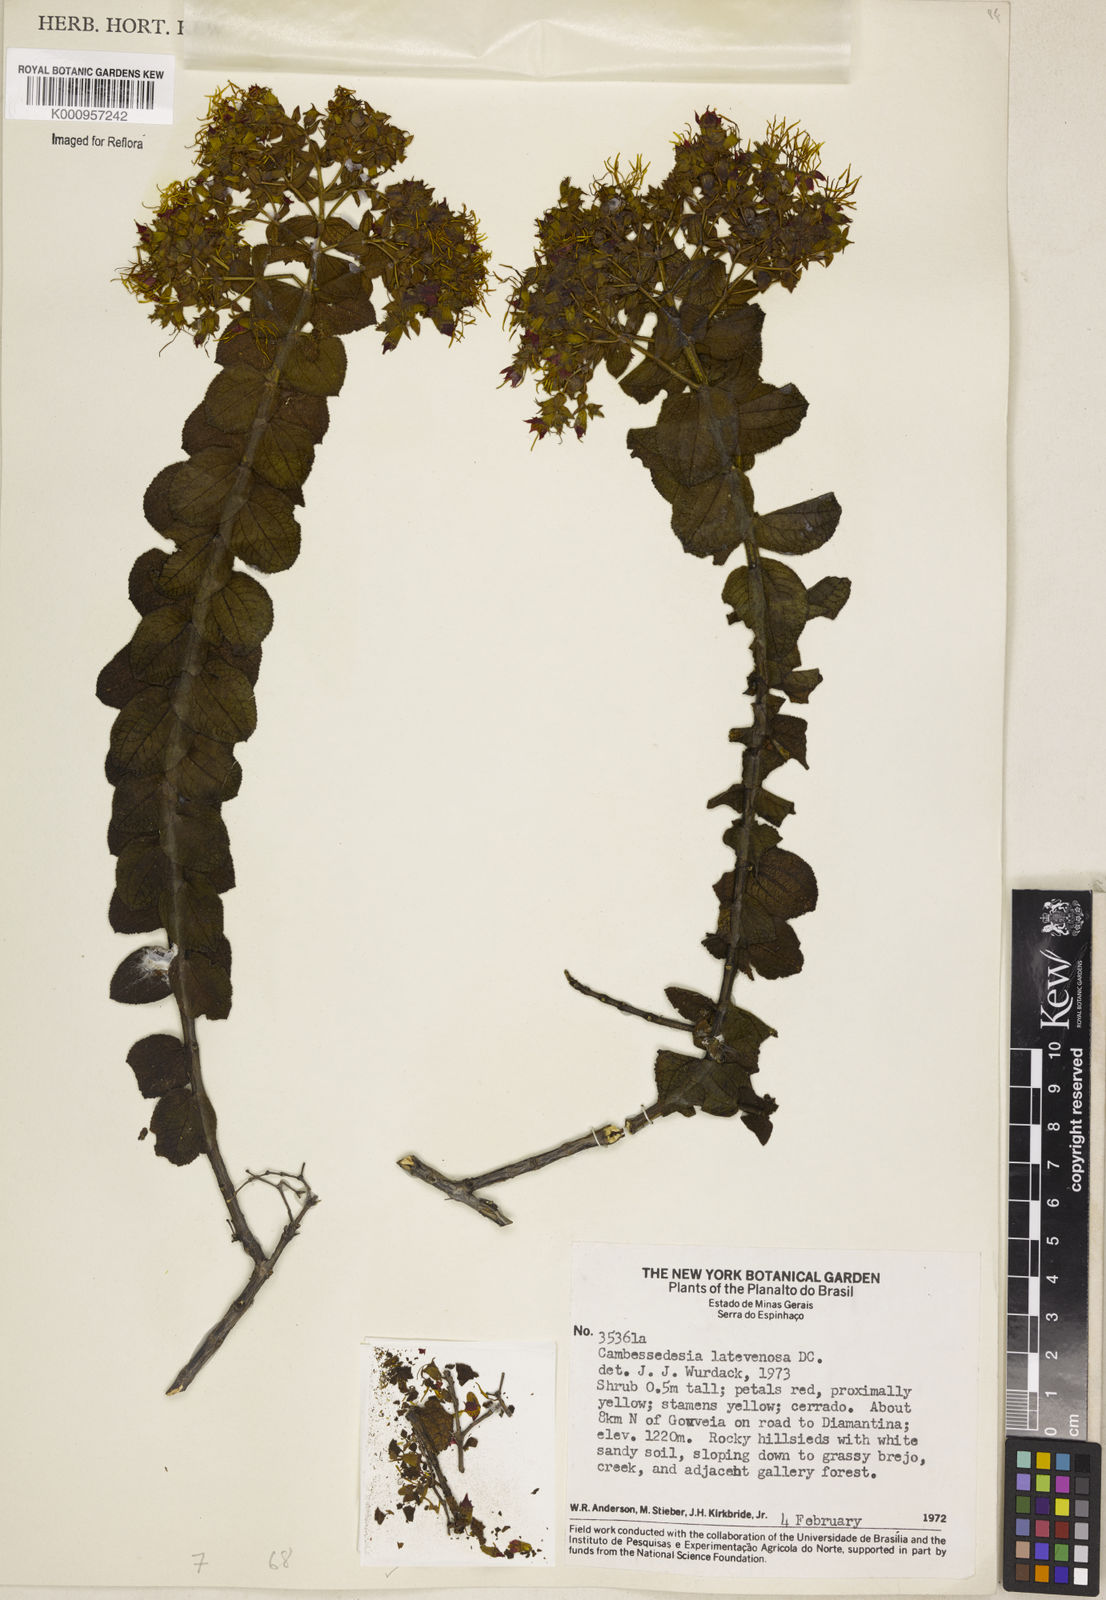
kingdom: Plantae
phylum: Tracheophyta
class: Magnoliopsida
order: Myrtales
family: Melastomataceae
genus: Cambessedesia
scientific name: Cambessedesia latevenosa
